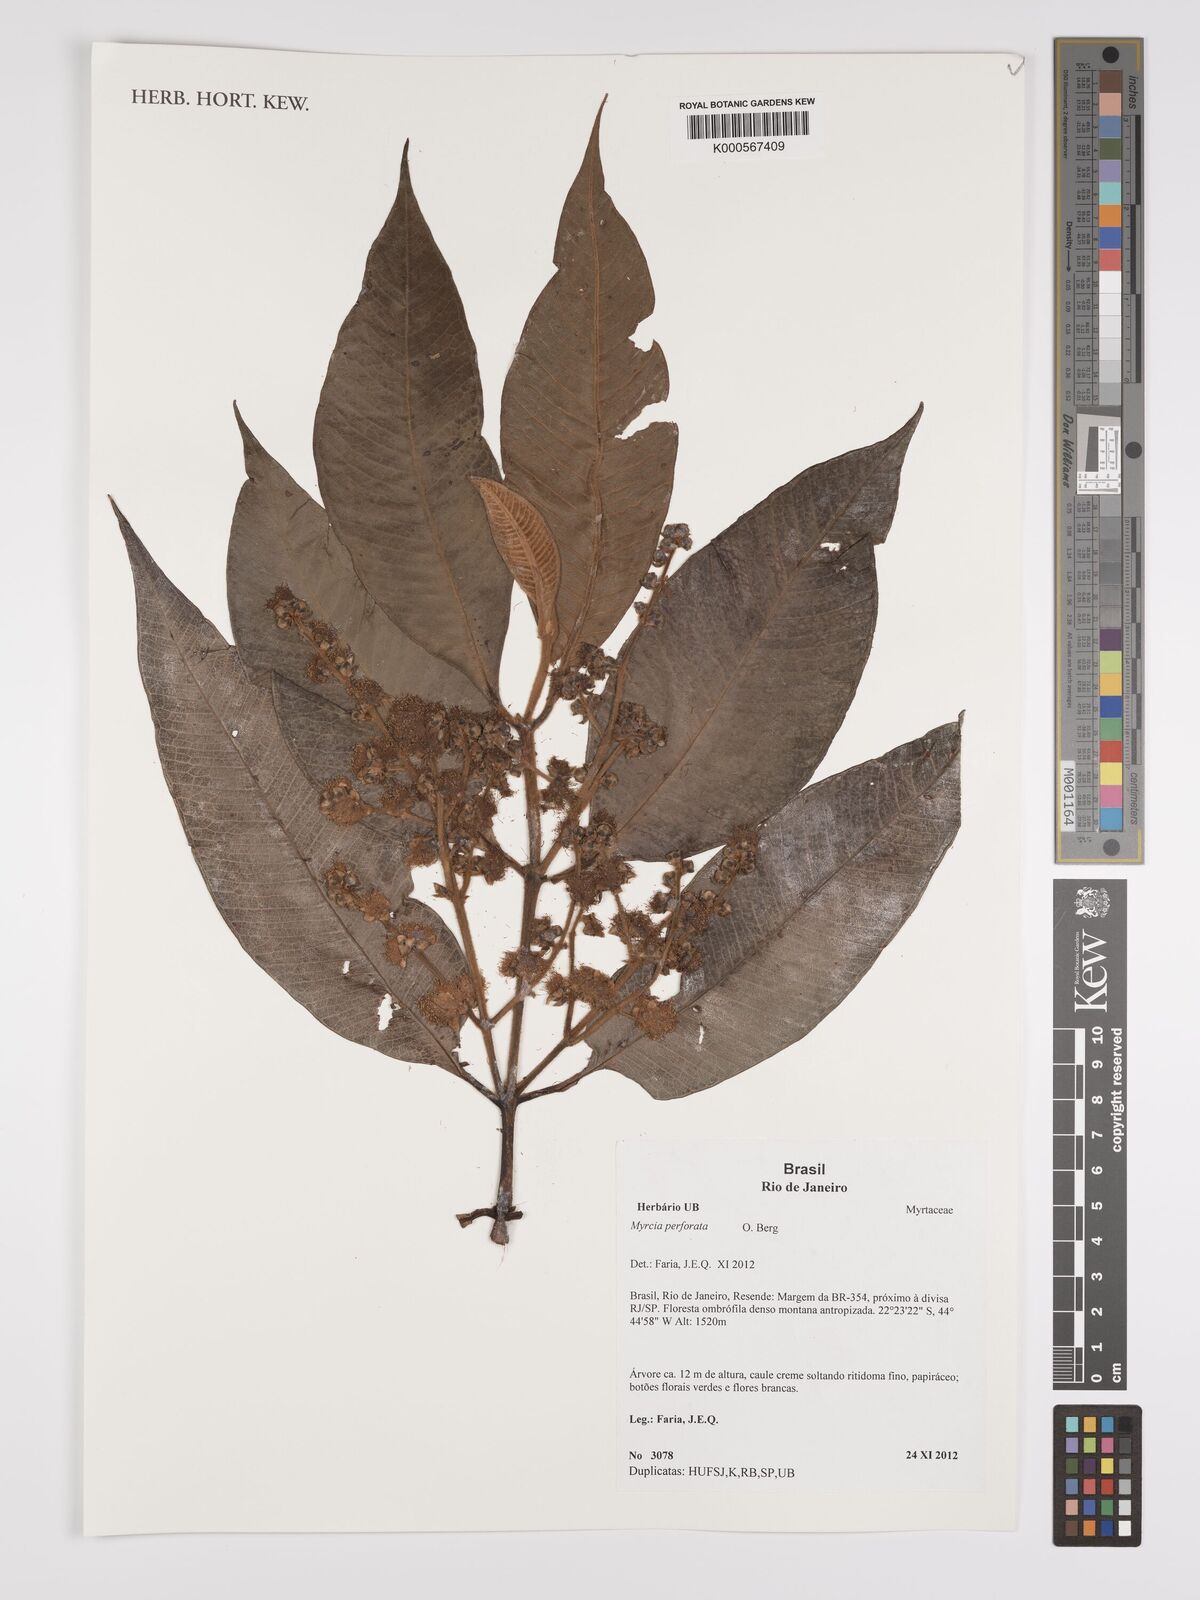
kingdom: Plantae
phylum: Tracheophyta
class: Magnoliopsida
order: Myrtales
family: Myrtaceae
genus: Myrcia
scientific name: Myrcia perforata
